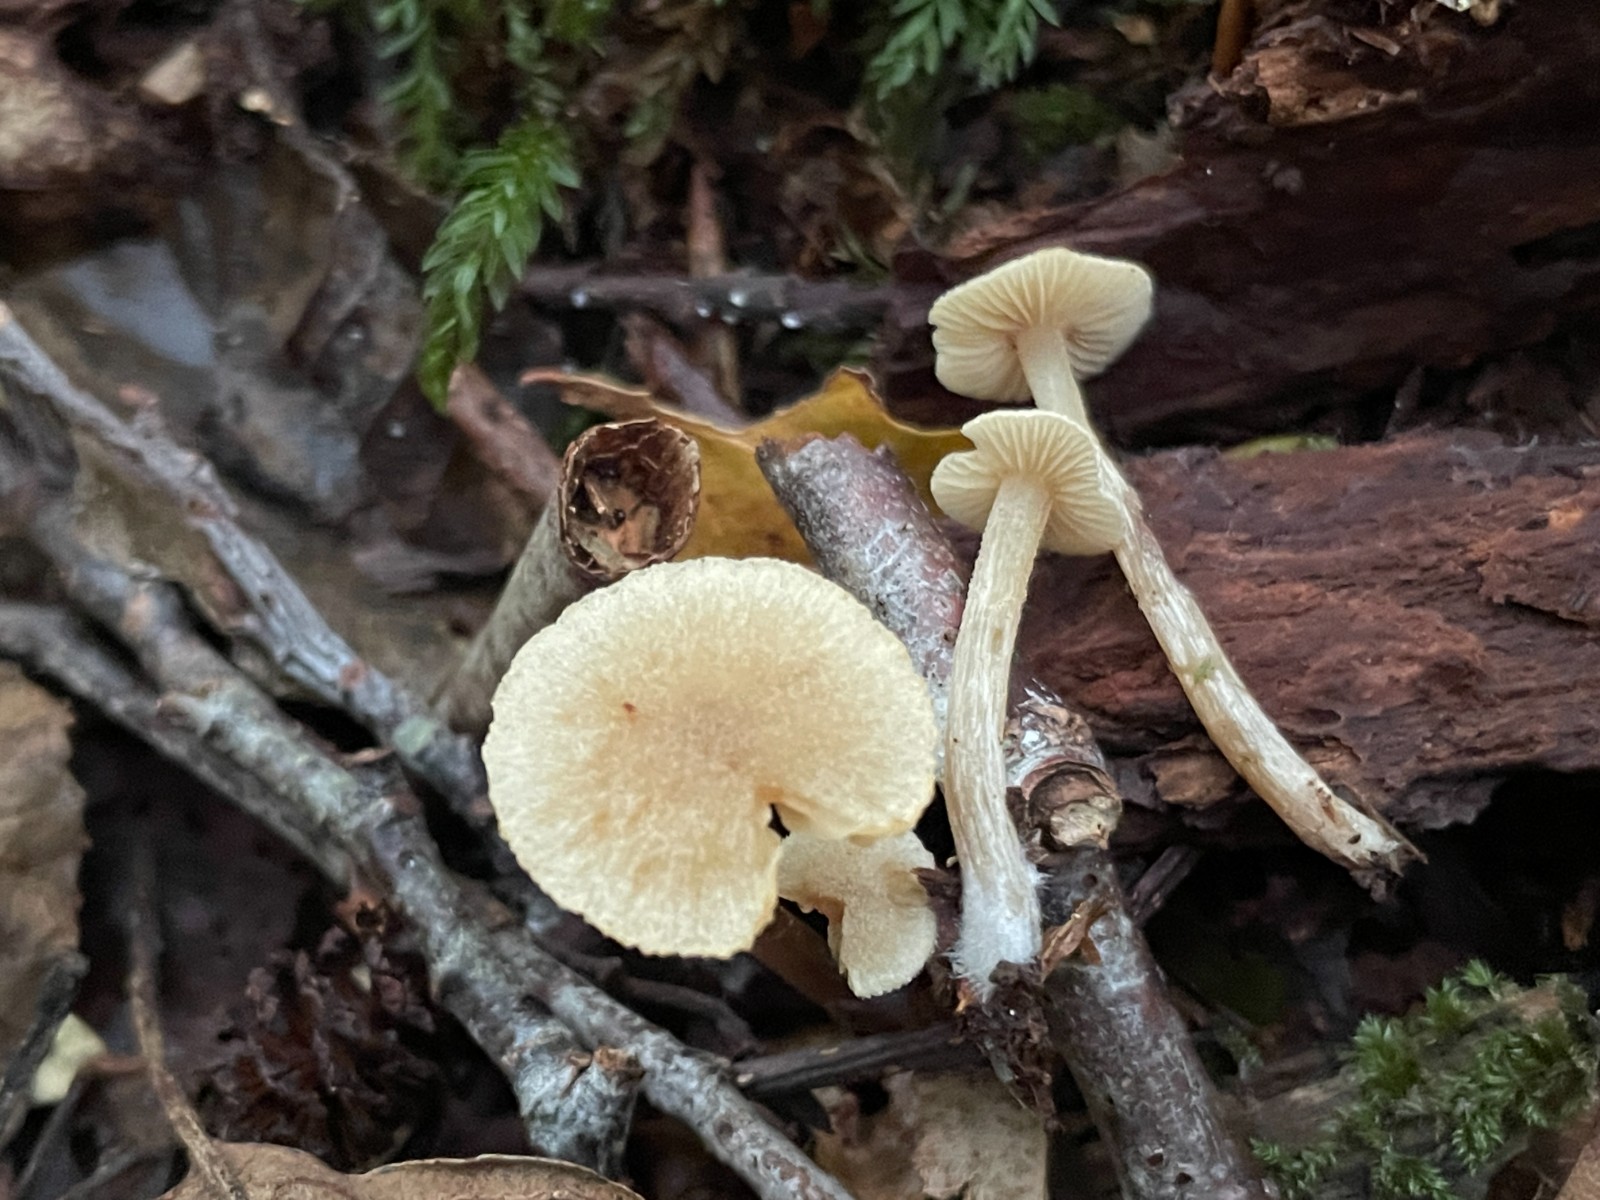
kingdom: Fungi
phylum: Basidiomycota
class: Agaricomycetes
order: Agaricales
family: Hymenogastraceae
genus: Naucoria
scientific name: Naucoria escharioides
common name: lys elle-knaphat
